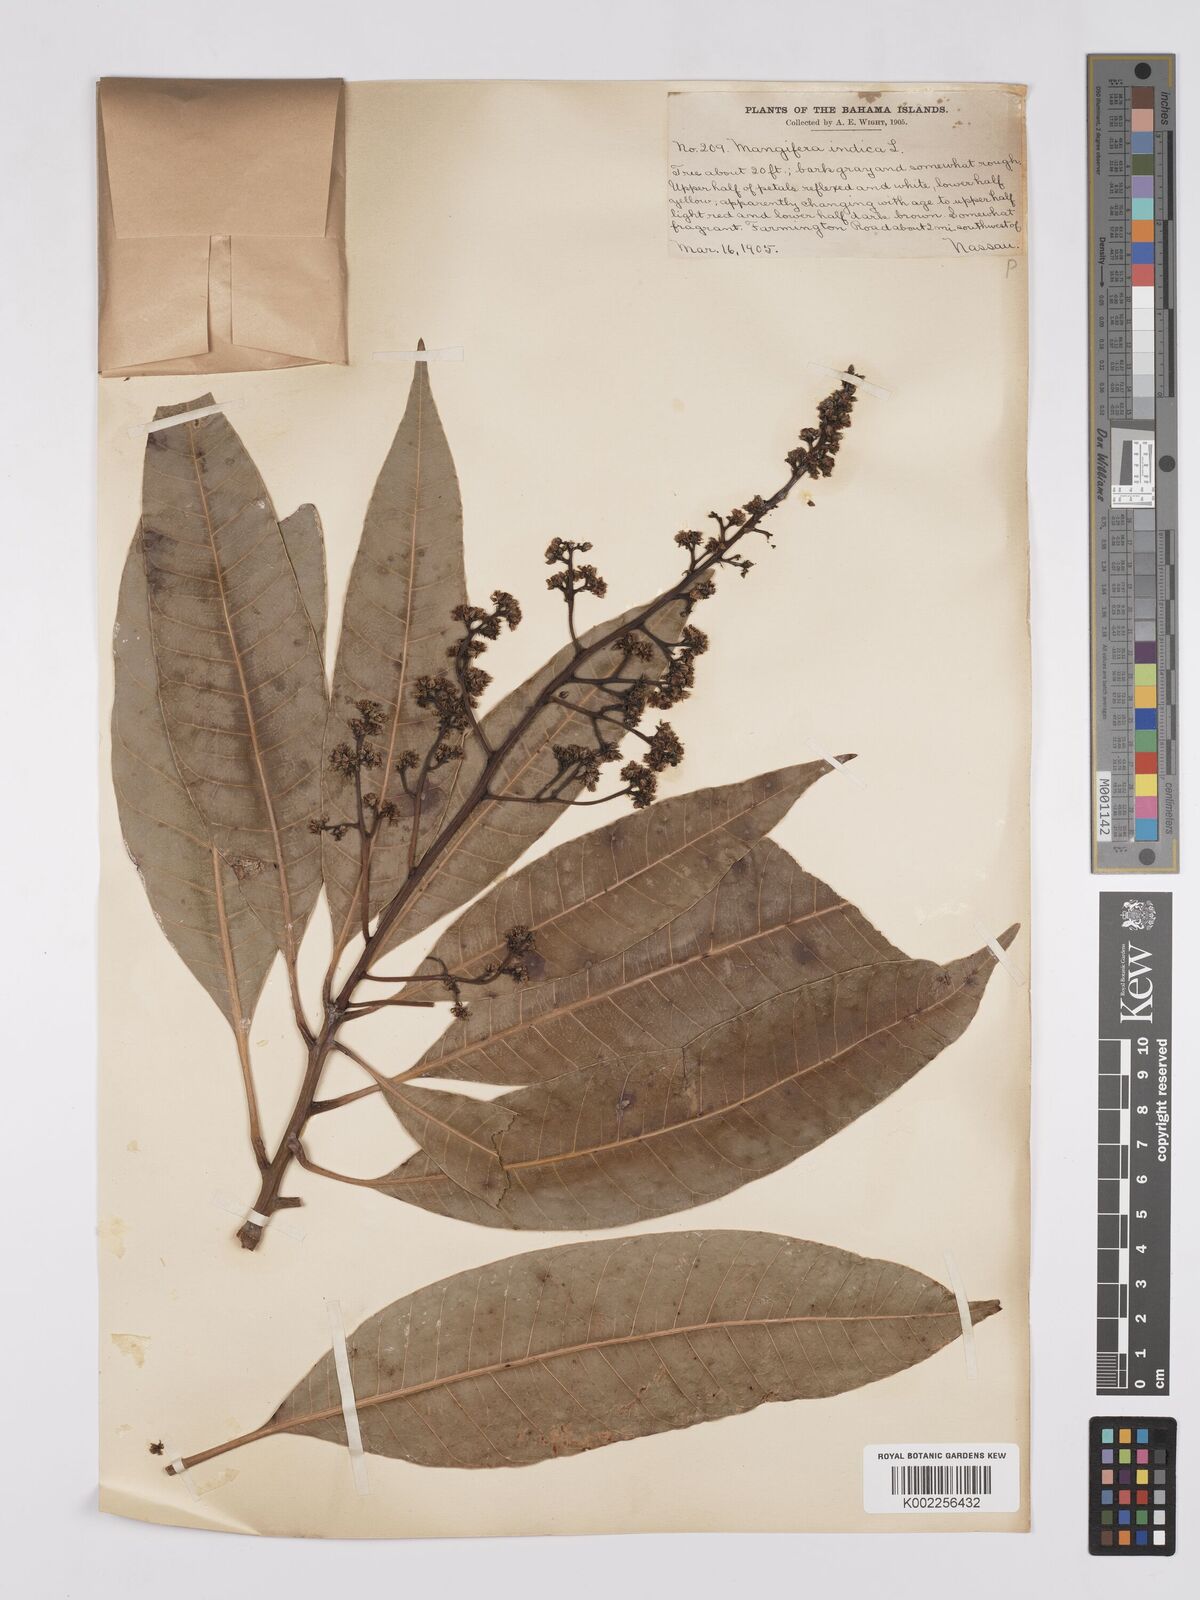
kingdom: Plantae
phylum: Tracheophyta
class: Magnoliopsida
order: Sapindales
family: Anacardiaceae
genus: Mangifera
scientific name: Mangifera indica
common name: Mango
